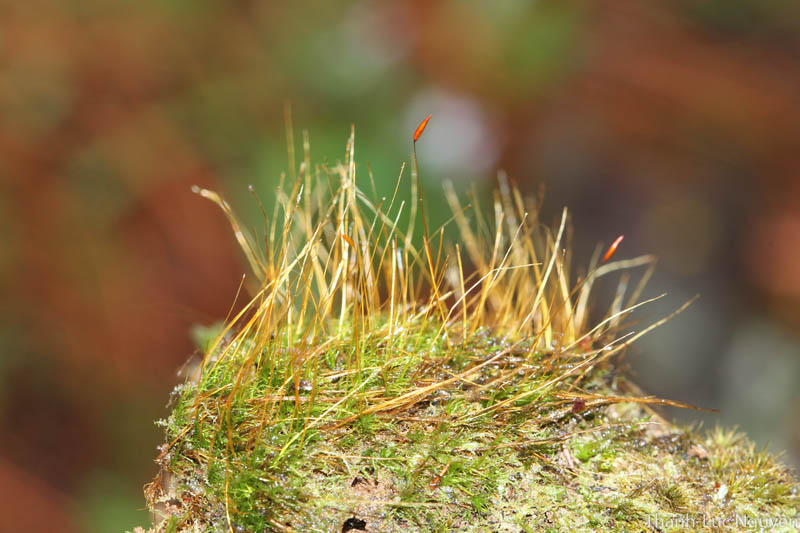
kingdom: Plantae
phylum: Bryophyta
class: Bryopsida
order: Dicranales
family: Ditrichaceae
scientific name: Ditrichaceae
